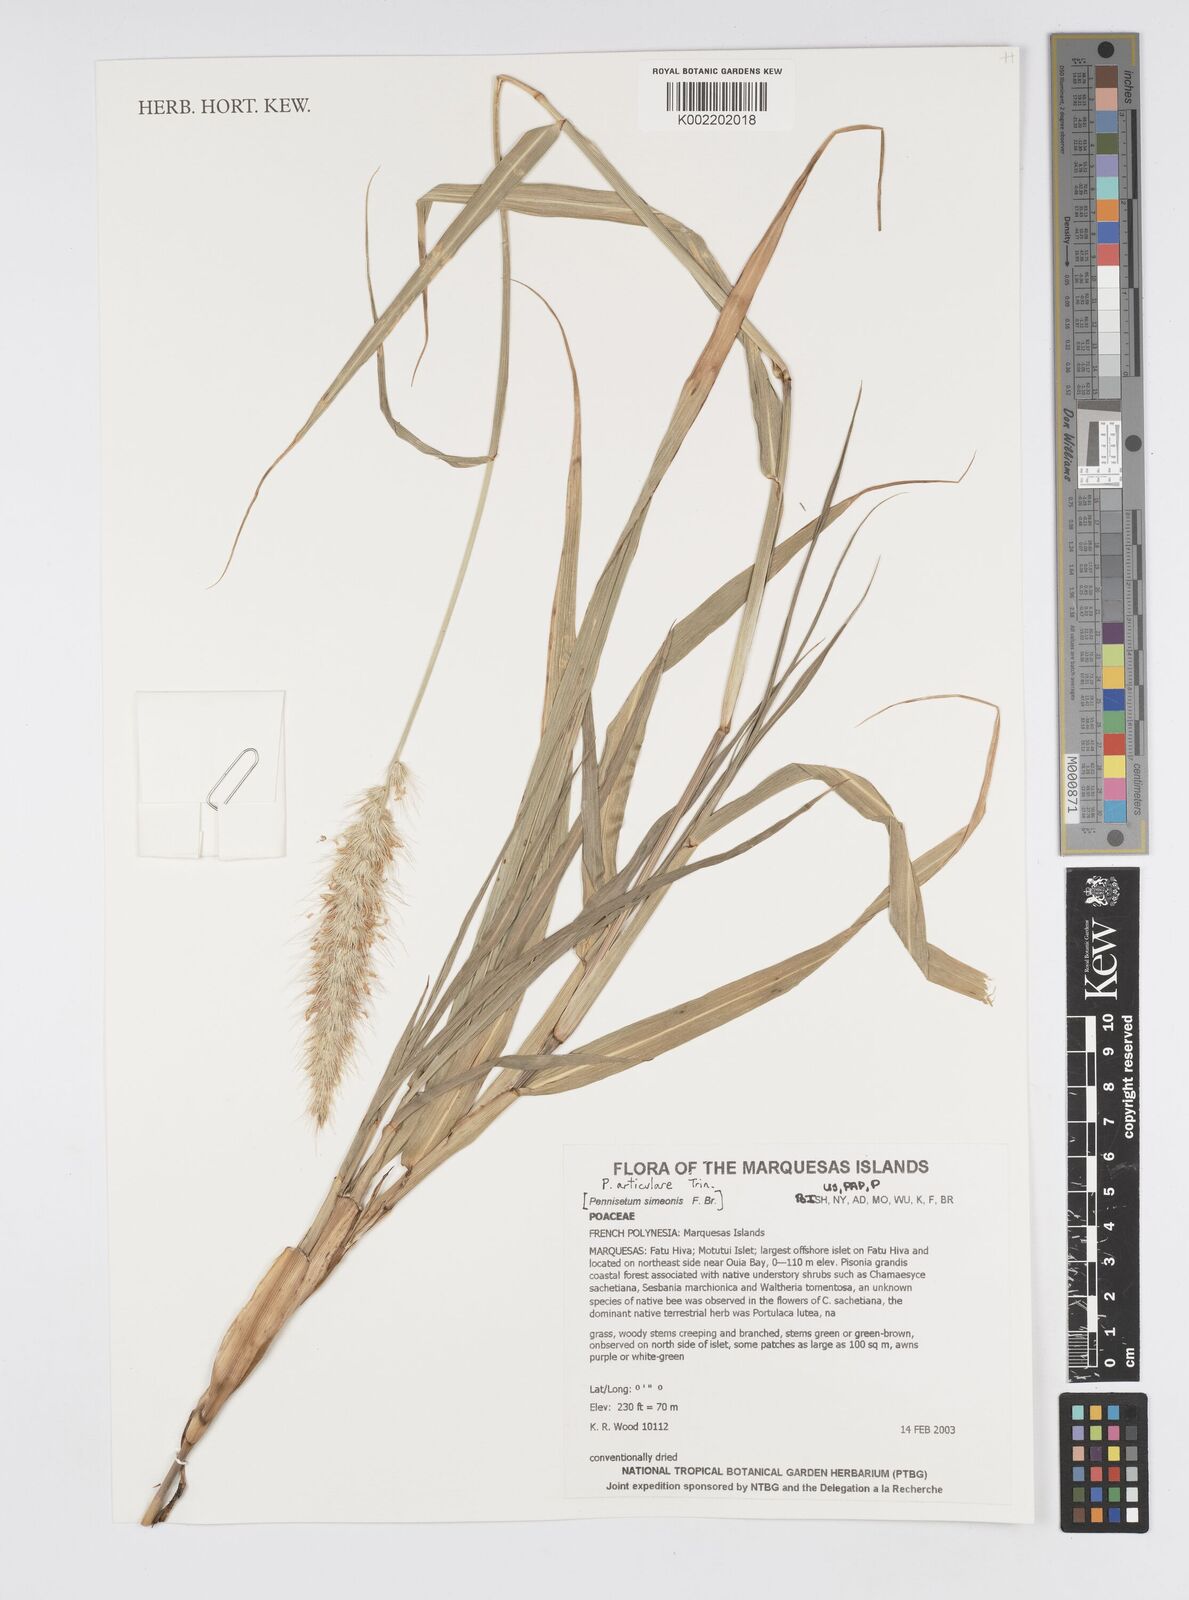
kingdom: Plantae
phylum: Tracheophyta
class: Liliopsida
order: Poales
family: Poaceae
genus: Cenchrus
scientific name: Cenchrus articularis
